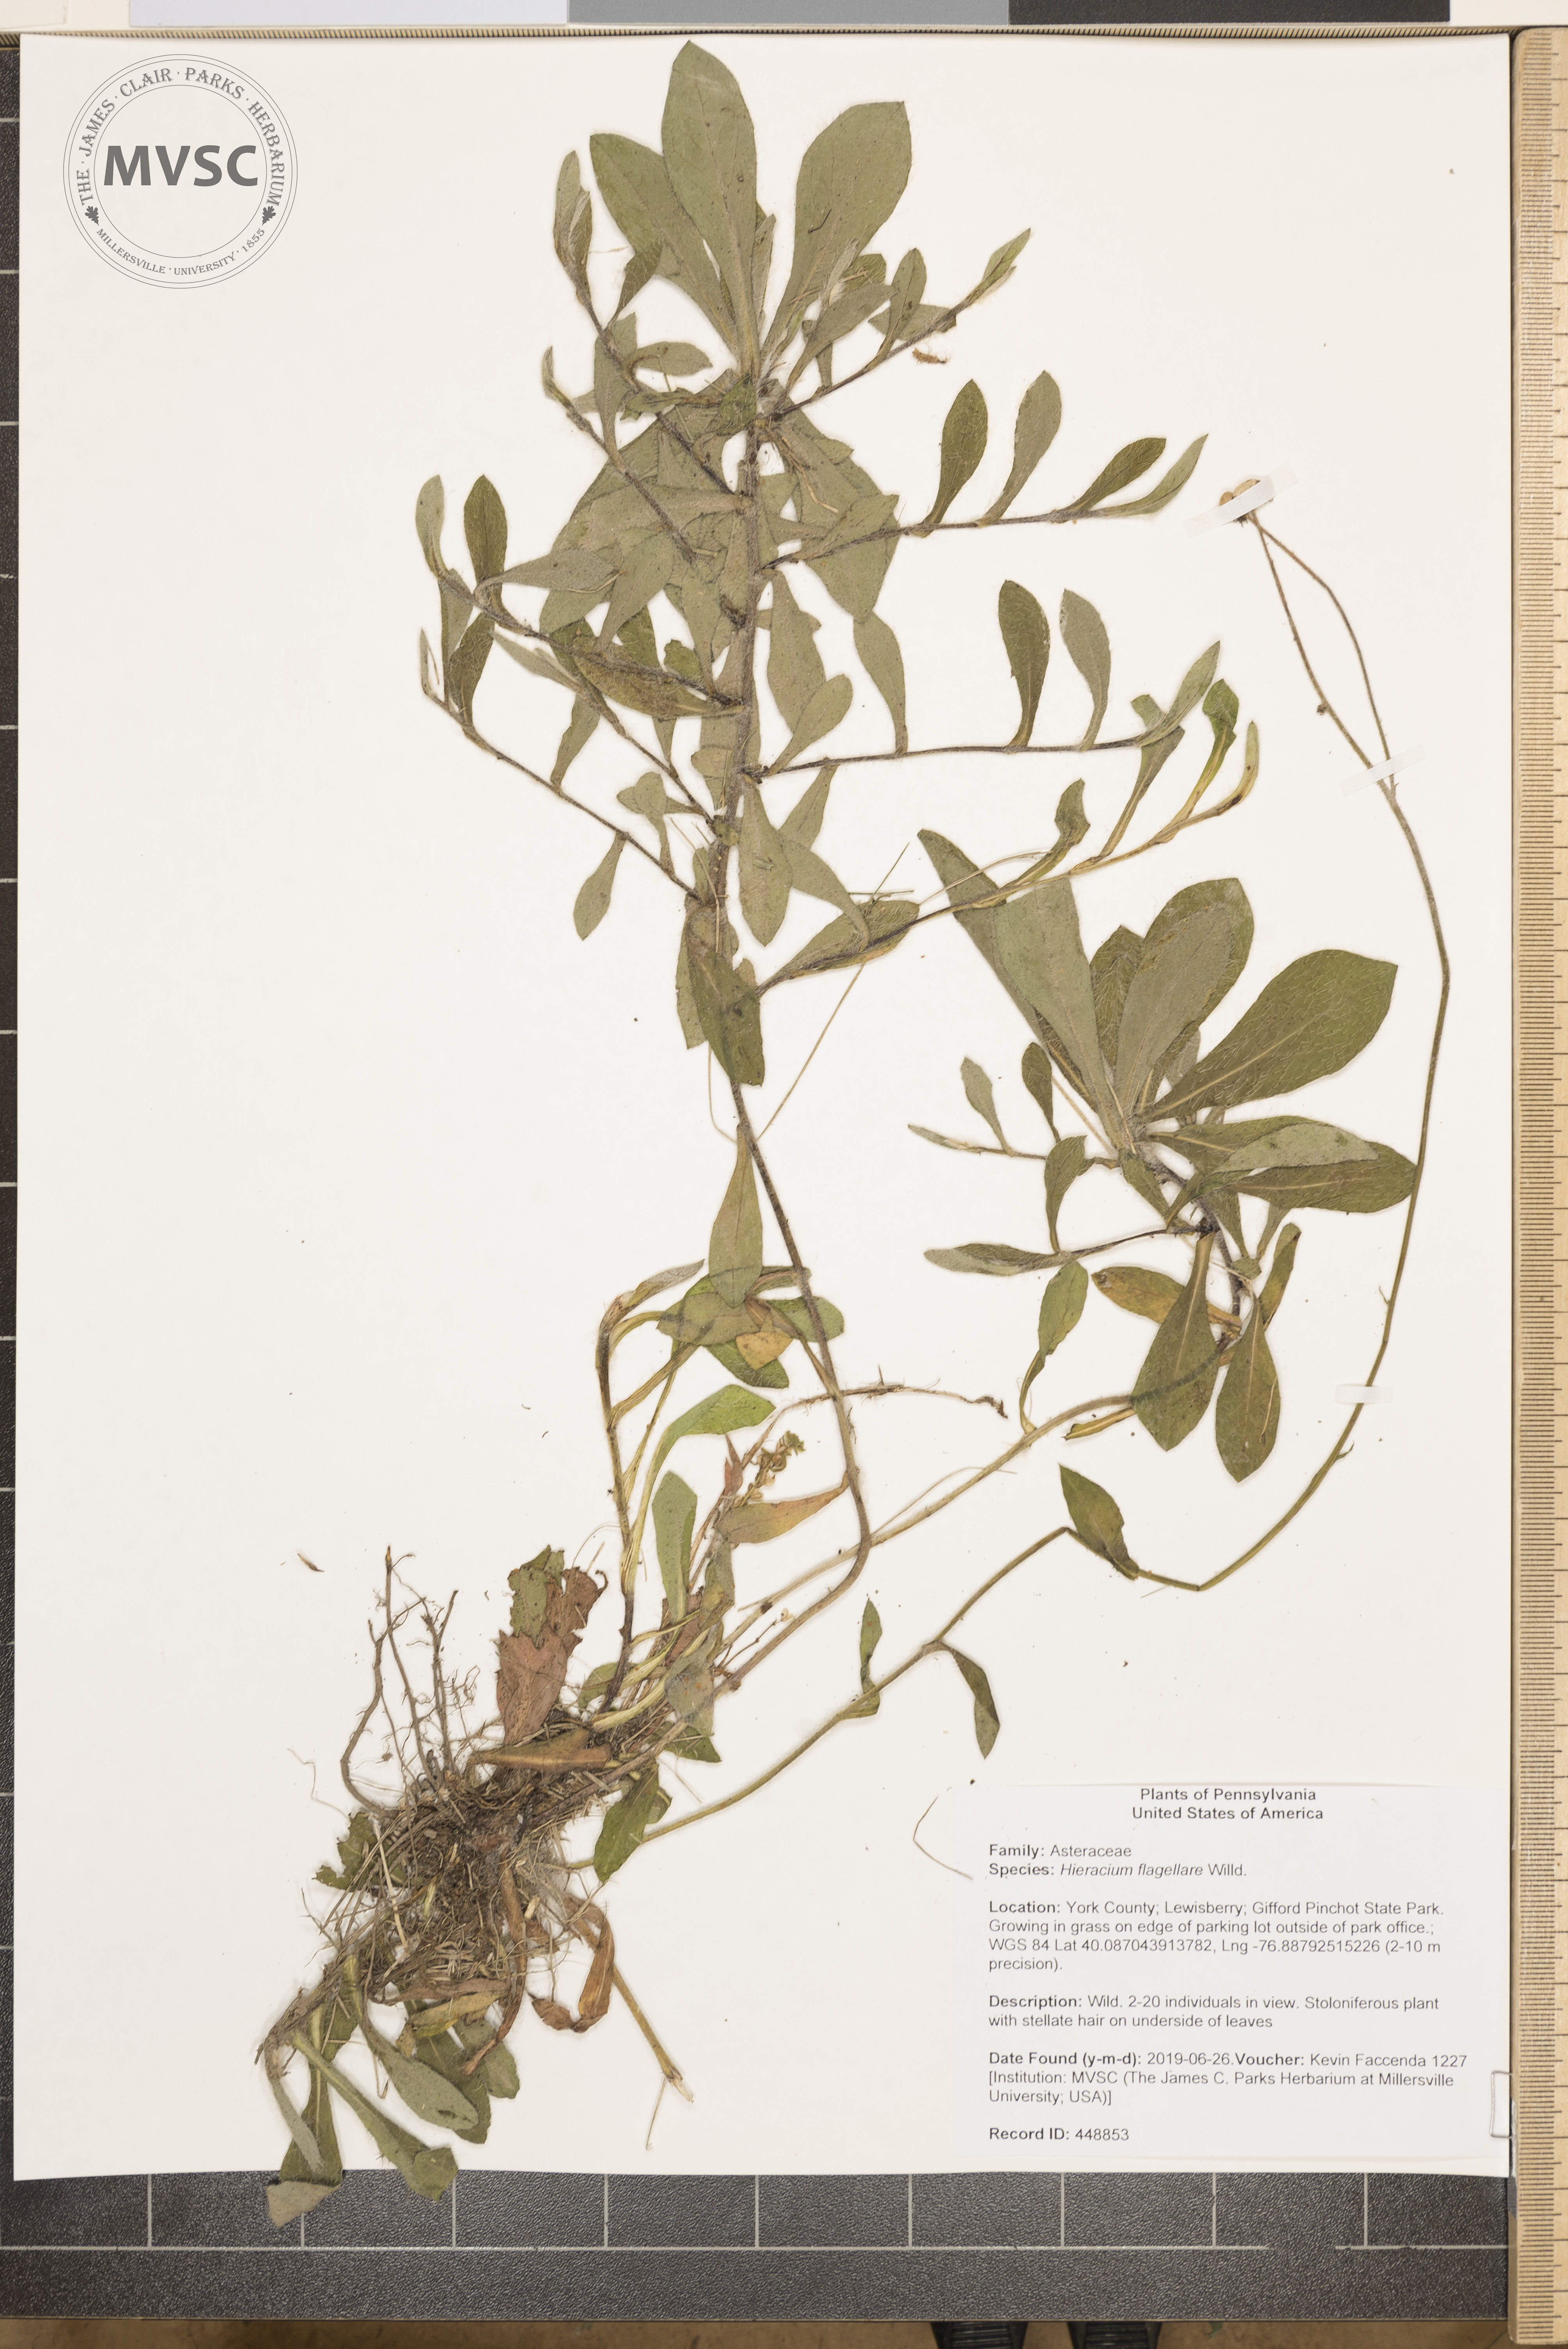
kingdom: Plantae
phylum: Tracheophyta
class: Magnoliopsida
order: Asterales
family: Asteraceae
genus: Pilosella
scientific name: Pilosella
